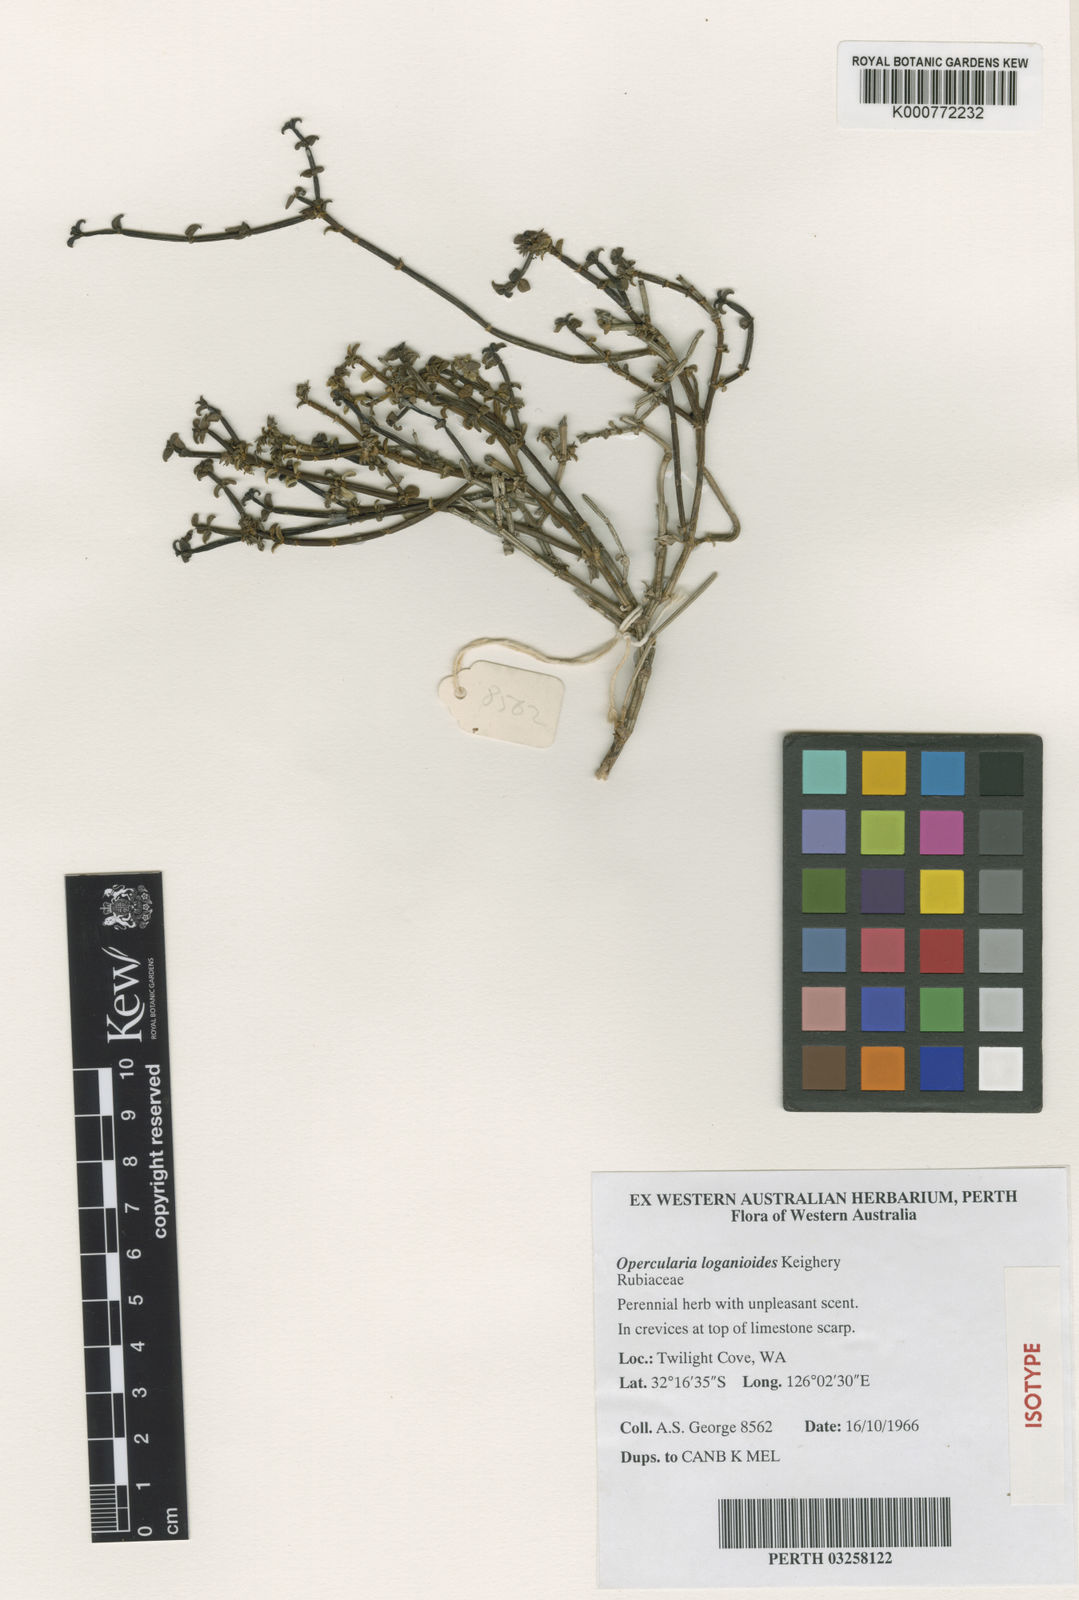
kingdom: Plantae
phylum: Tracheophyta
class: Magnoliopsida
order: Gentianales
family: Rubiaceae
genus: Opercularia
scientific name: Opercularia loganioides
